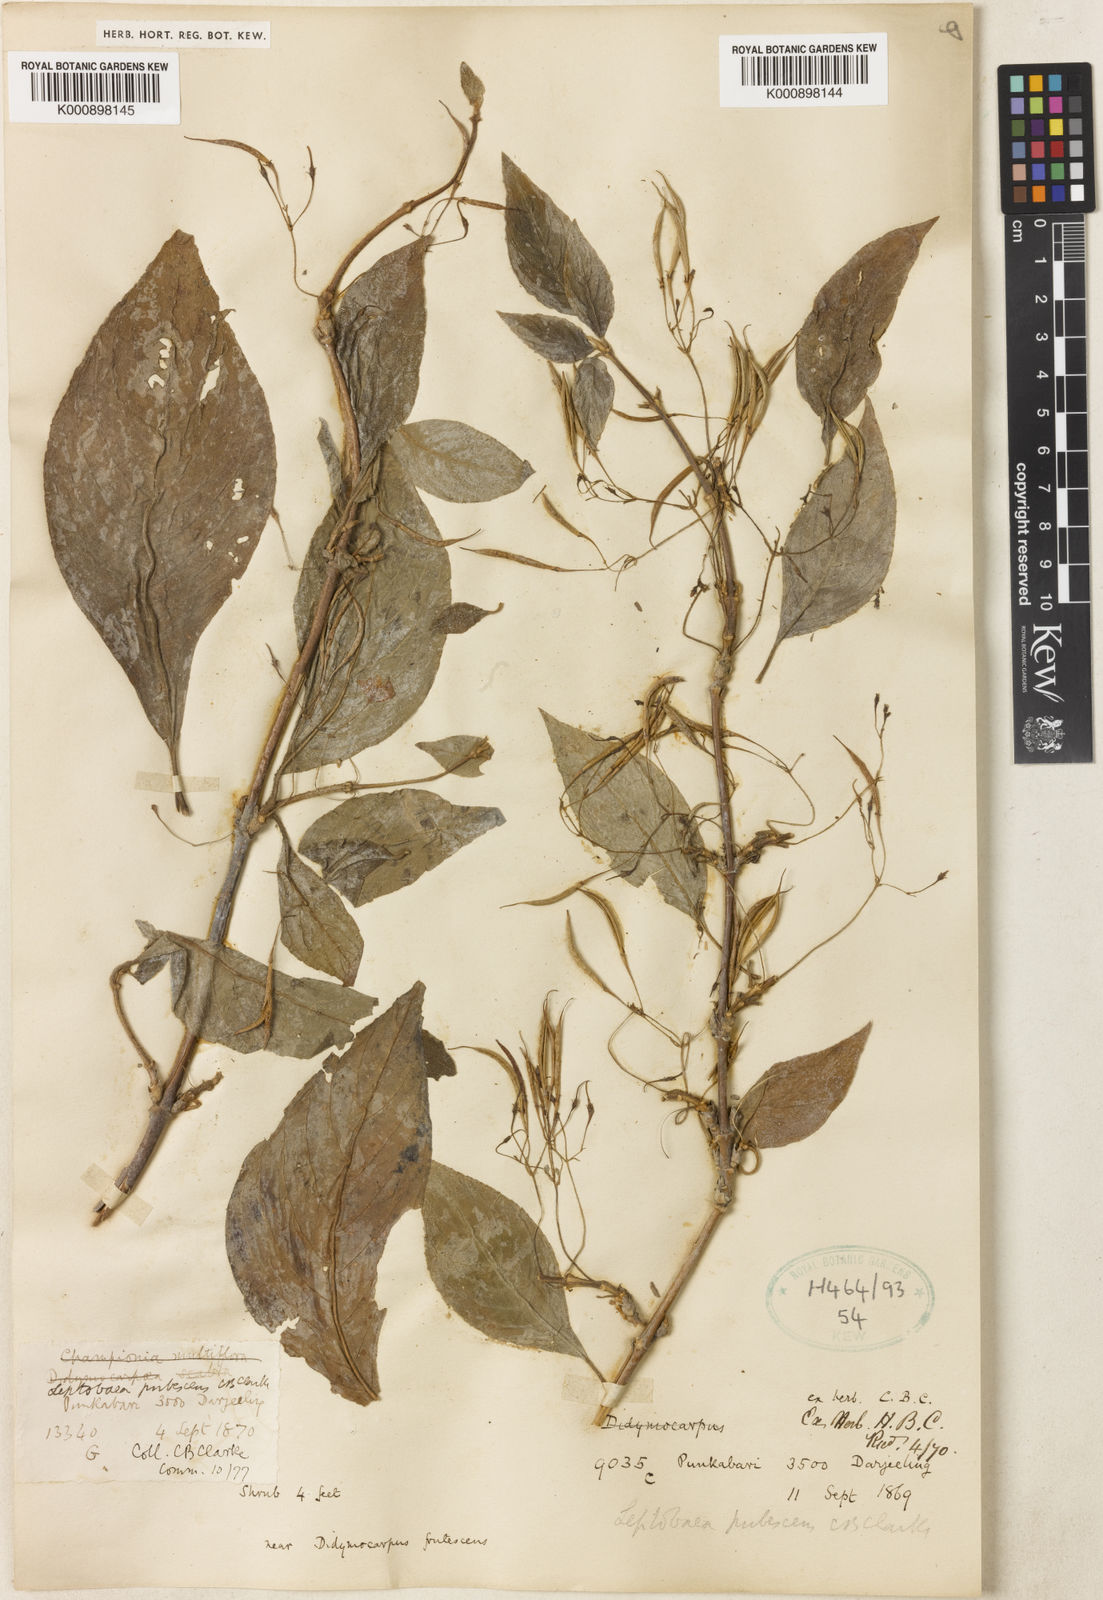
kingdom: Plantae
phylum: Tracheophyta
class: Magnoliopsida
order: Lamiales
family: Gesneriaceae
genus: Leptoboea
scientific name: Leptoboea multiflora
